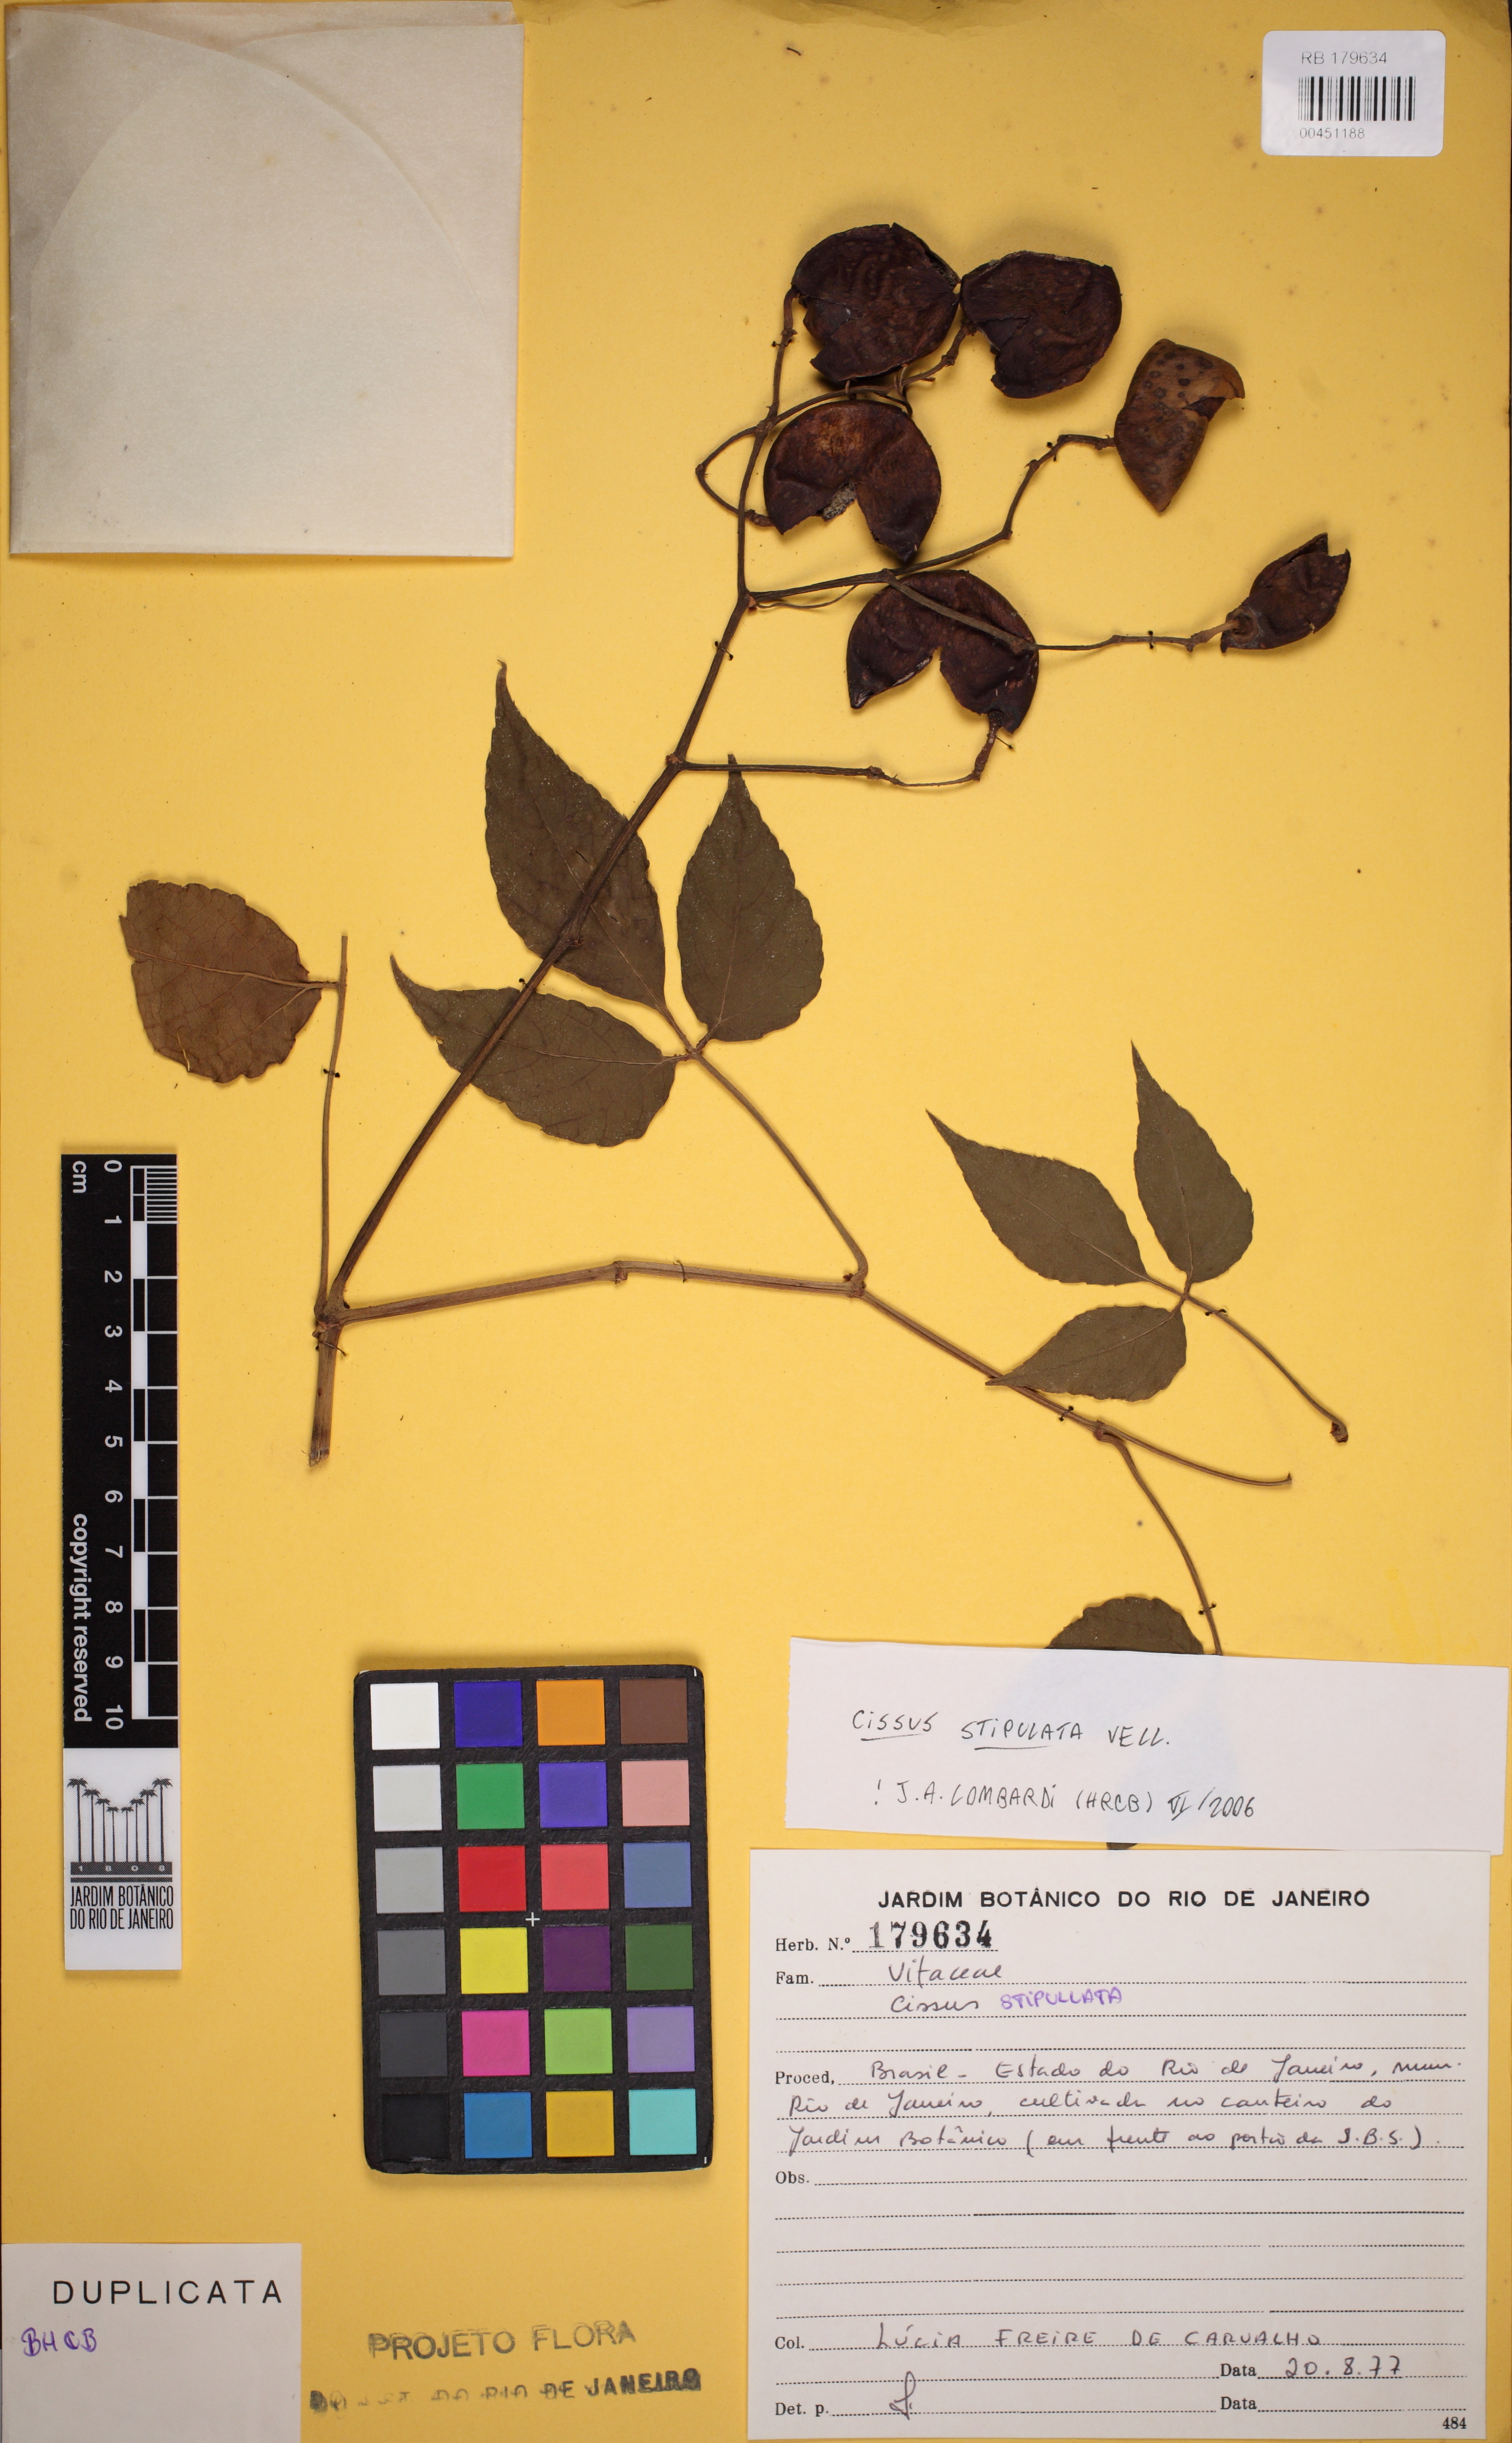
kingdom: Plantae
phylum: Tracheophyta
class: Magnoliopsida
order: Vitales
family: Vitaceae
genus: Cissus
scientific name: Cissus stipulata
